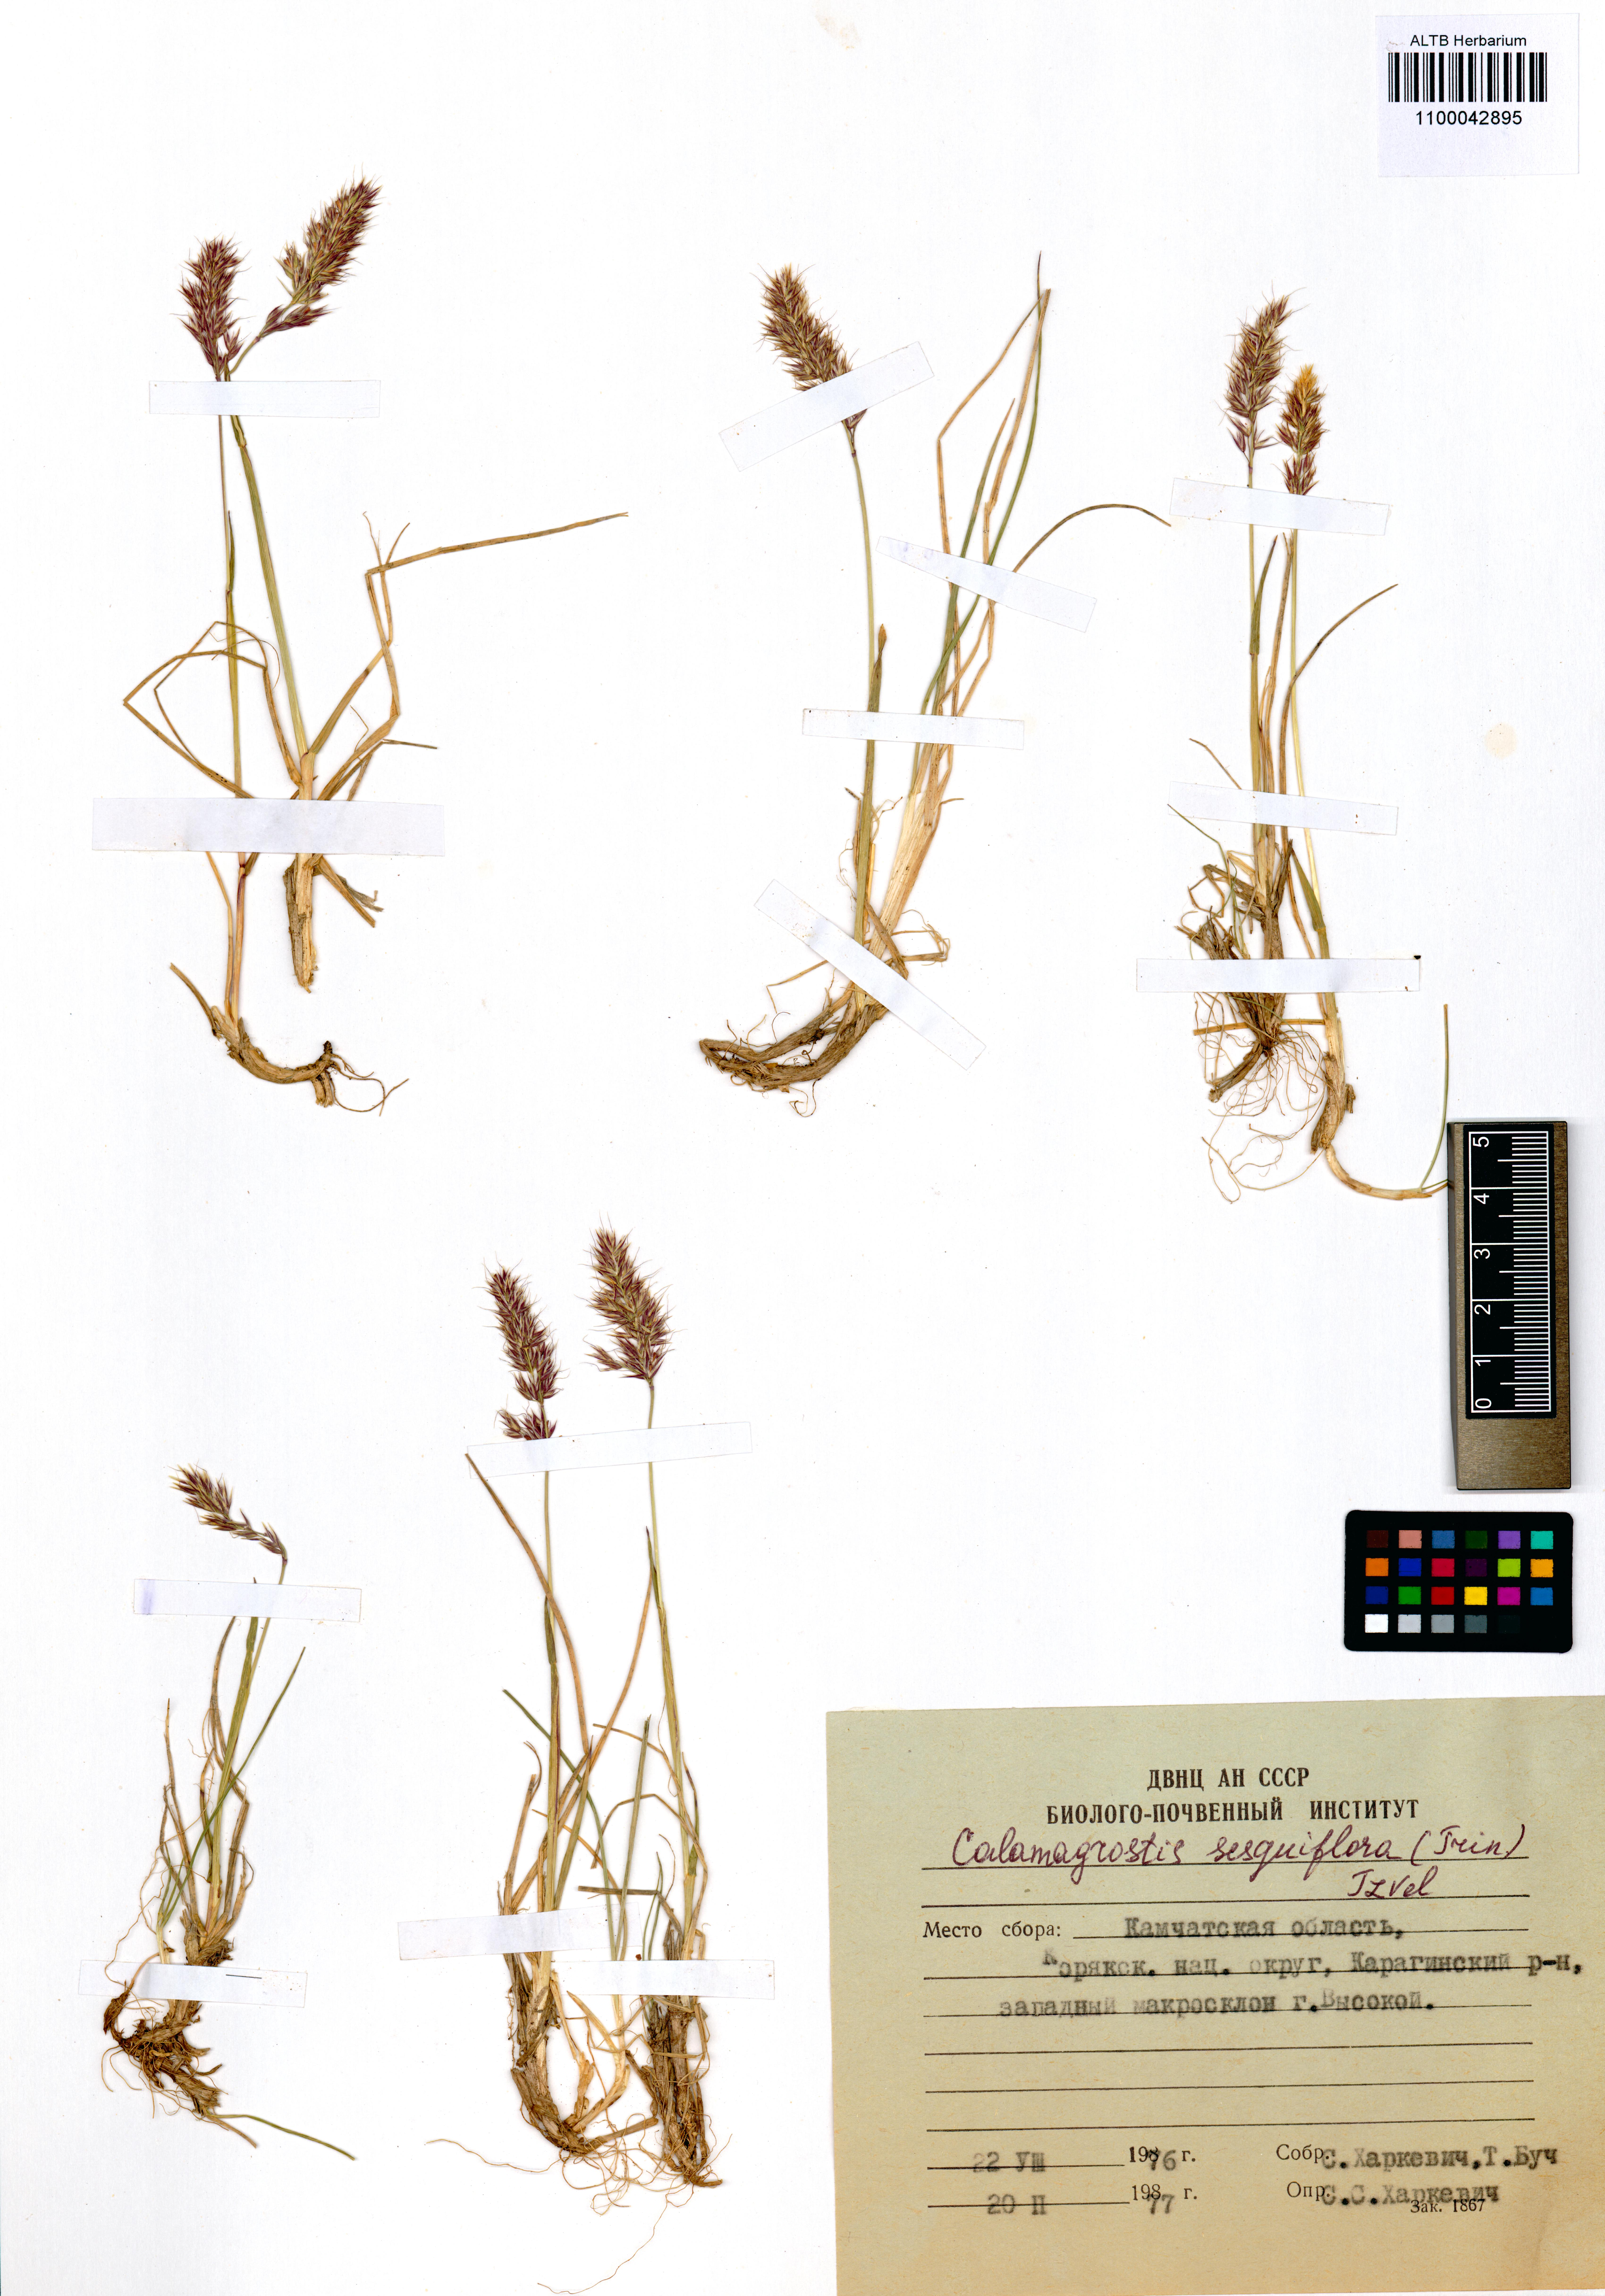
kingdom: Plantae
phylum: Tracheophyta
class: Liliopsida
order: Poales
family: Poaceae
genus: Calamagrostis
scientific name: Calamagrostis sesquiflora
